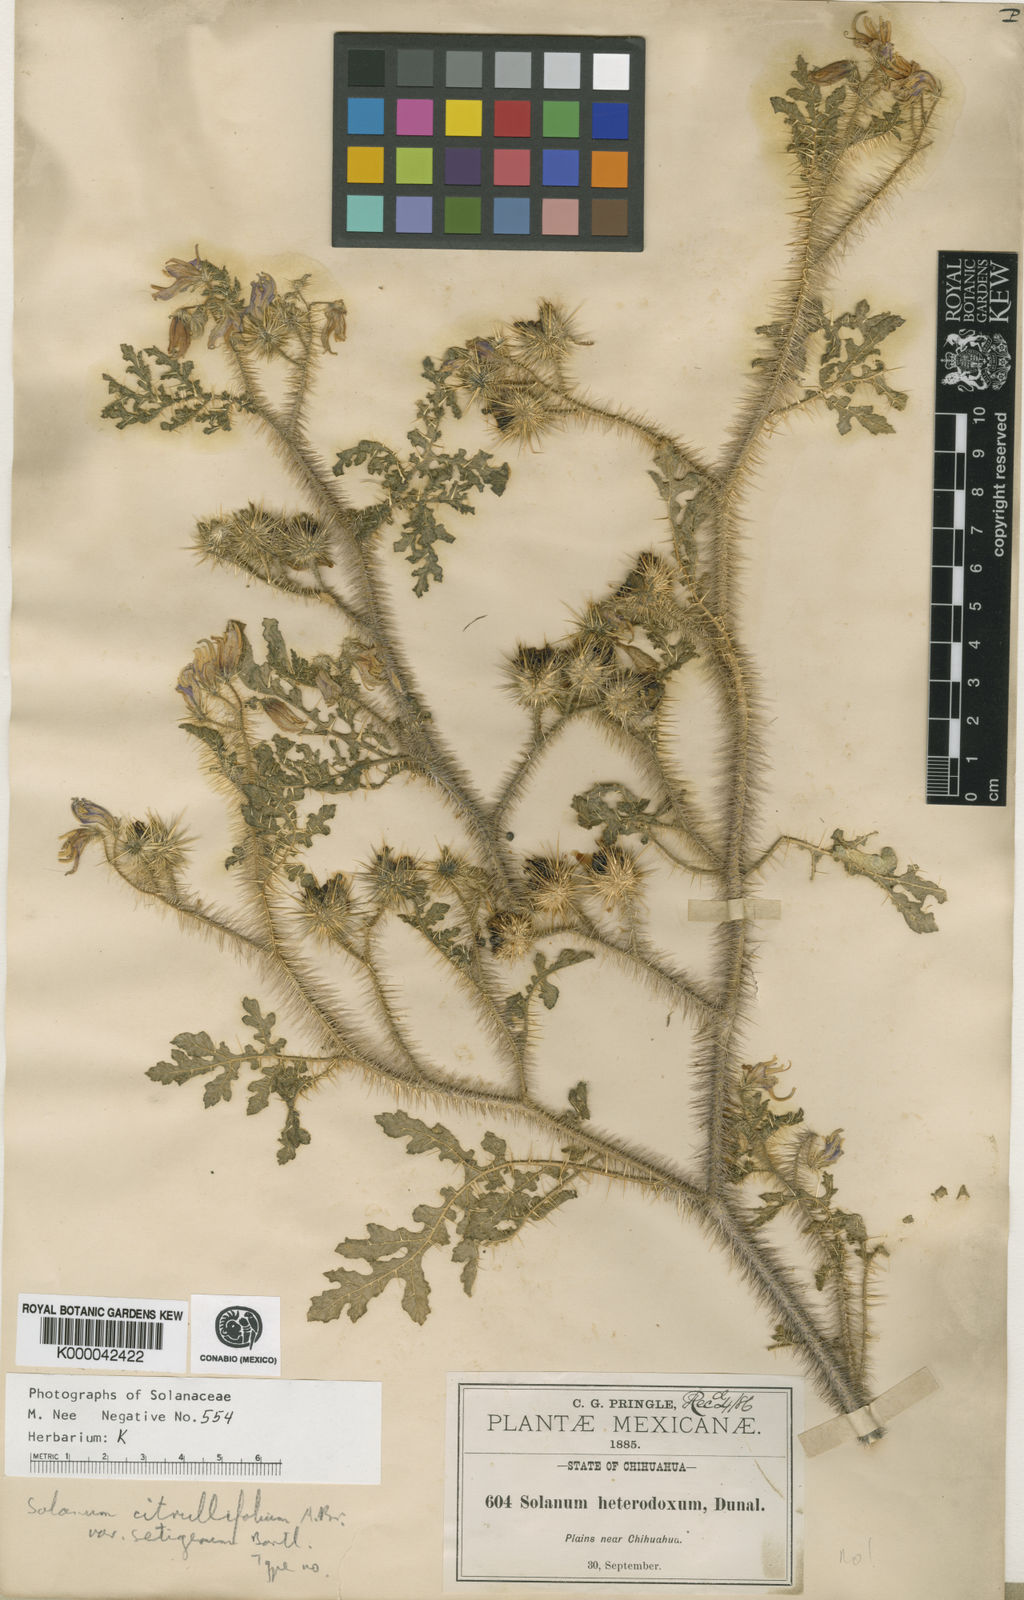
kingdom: Plantae
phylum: Tracheophyta
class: Magnoliopsida
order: Solanales
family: Solanaceae
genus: Solanum
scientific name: Solanum citrullifolium
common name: Melon-leaf nightshade
